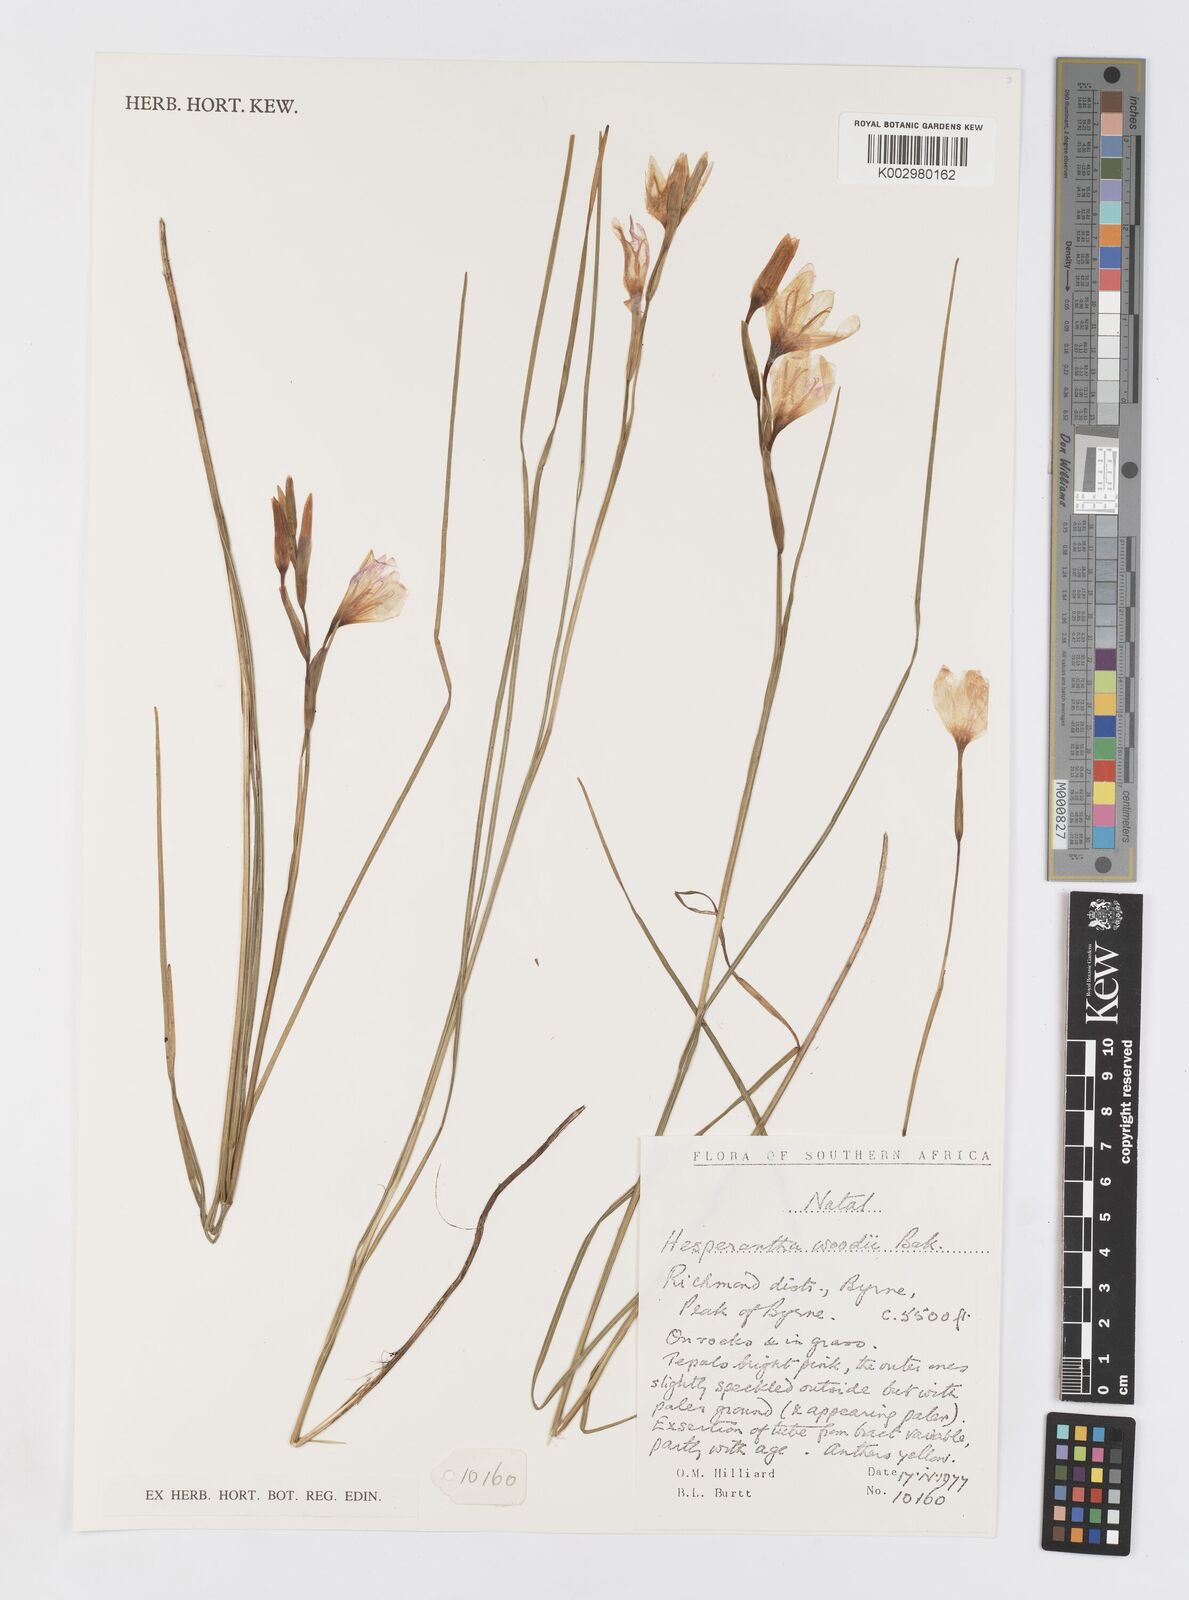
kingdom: Plantae
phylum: Tracheophyta
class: Liliopsida
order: Asparagales
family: Iridaceae
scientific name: Iridaceae
